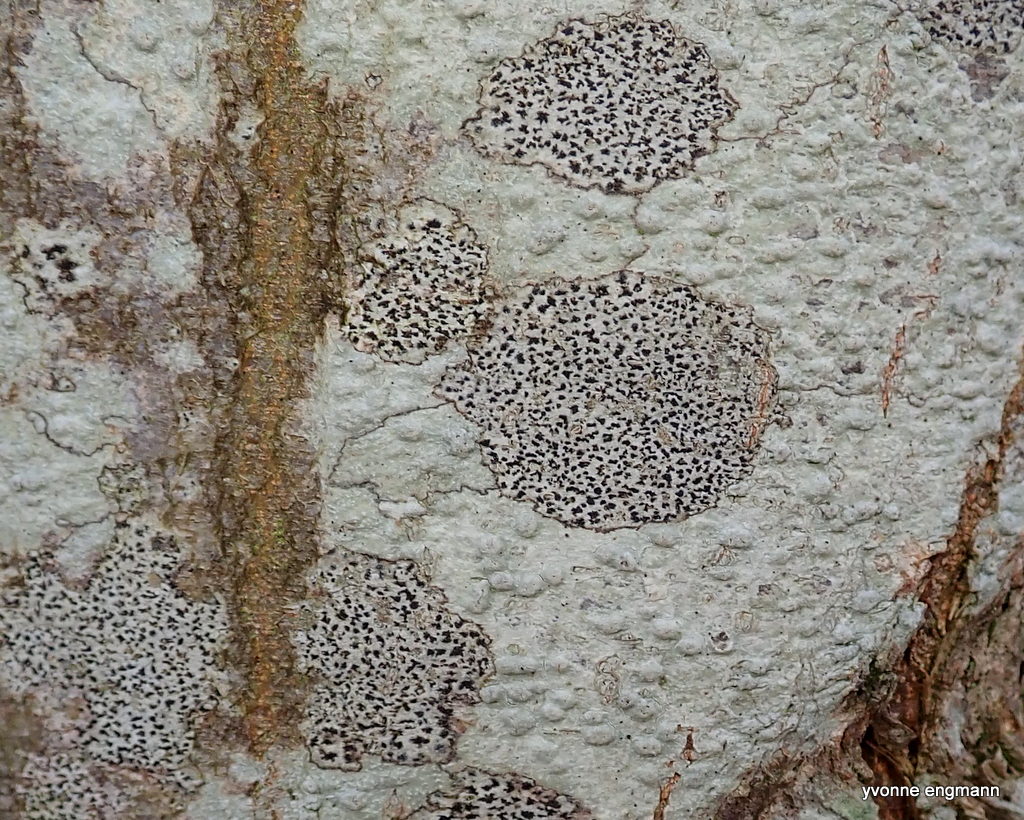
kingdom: Fungi
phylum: Ascomycota
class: Arthoniomycetes
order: Arthoniales
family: Arthoniaceae
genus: Arthonia
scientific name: Arthonia radiata
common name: stjerne-pletlav
